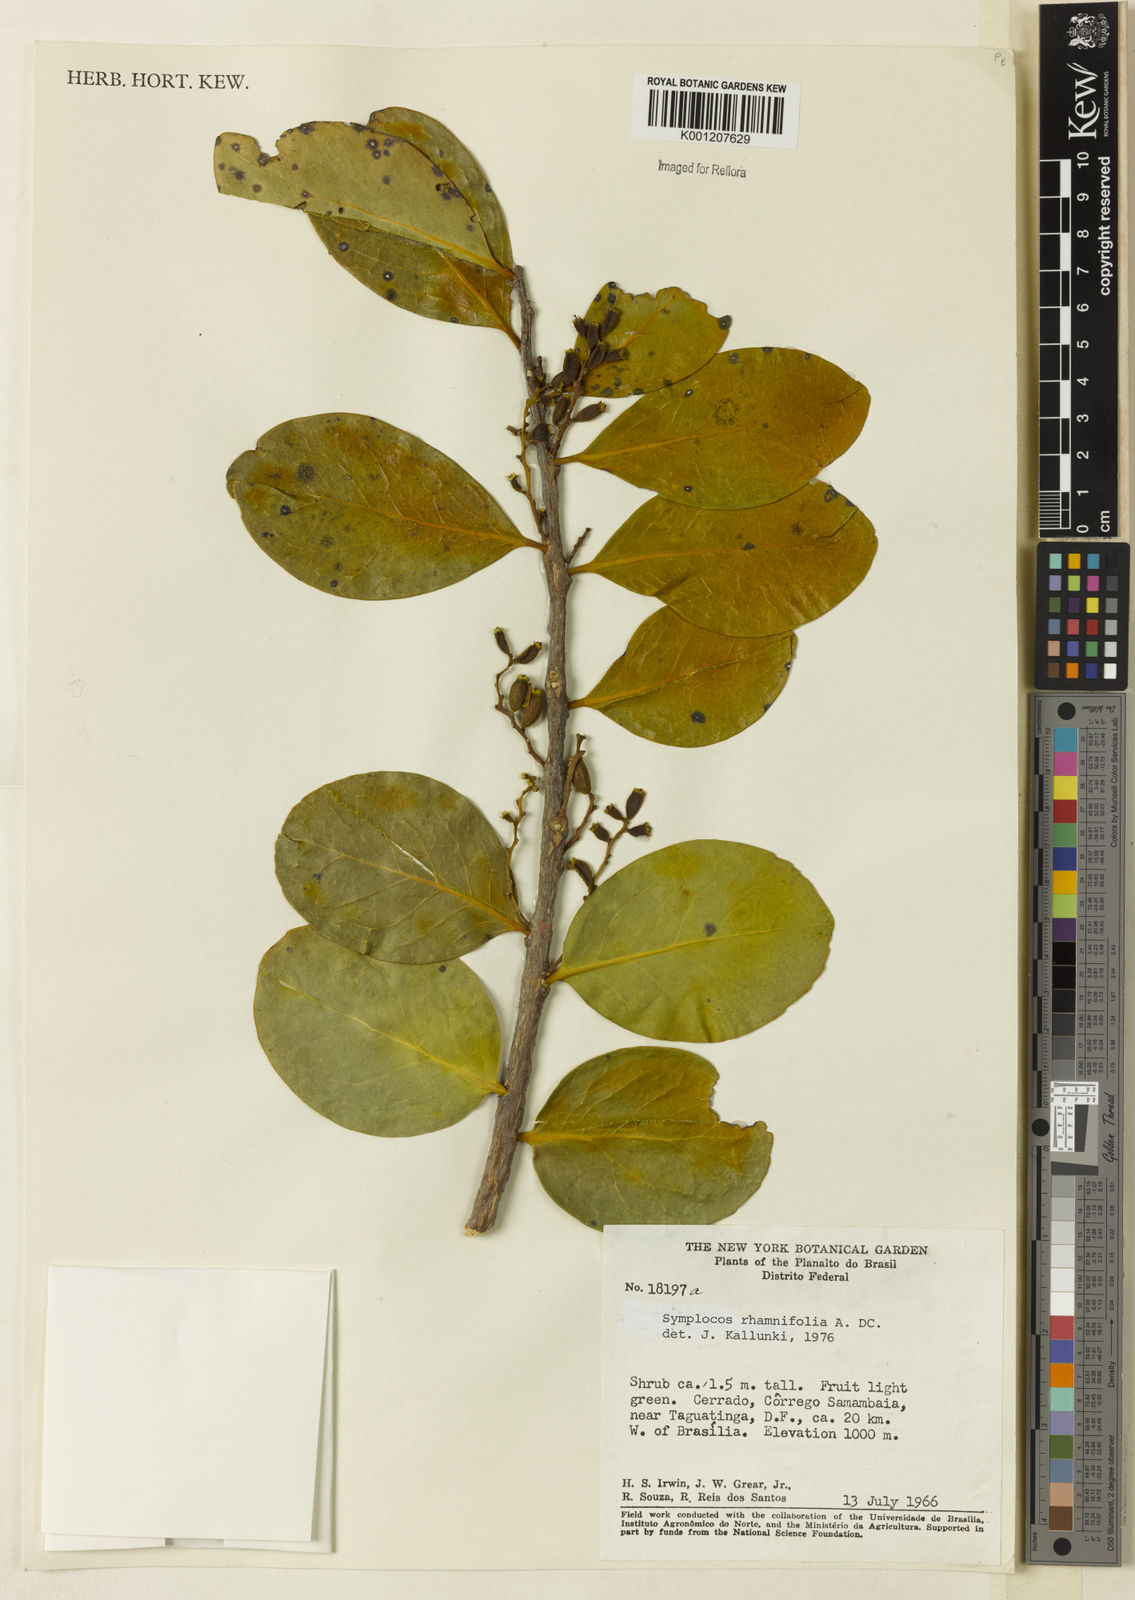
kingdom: Plantae
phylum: Tracheophyta
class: Magnoliopsida
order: Ericales
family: Symplocaceae
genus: Symplocos
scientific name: Symplocos rhamnifolia
